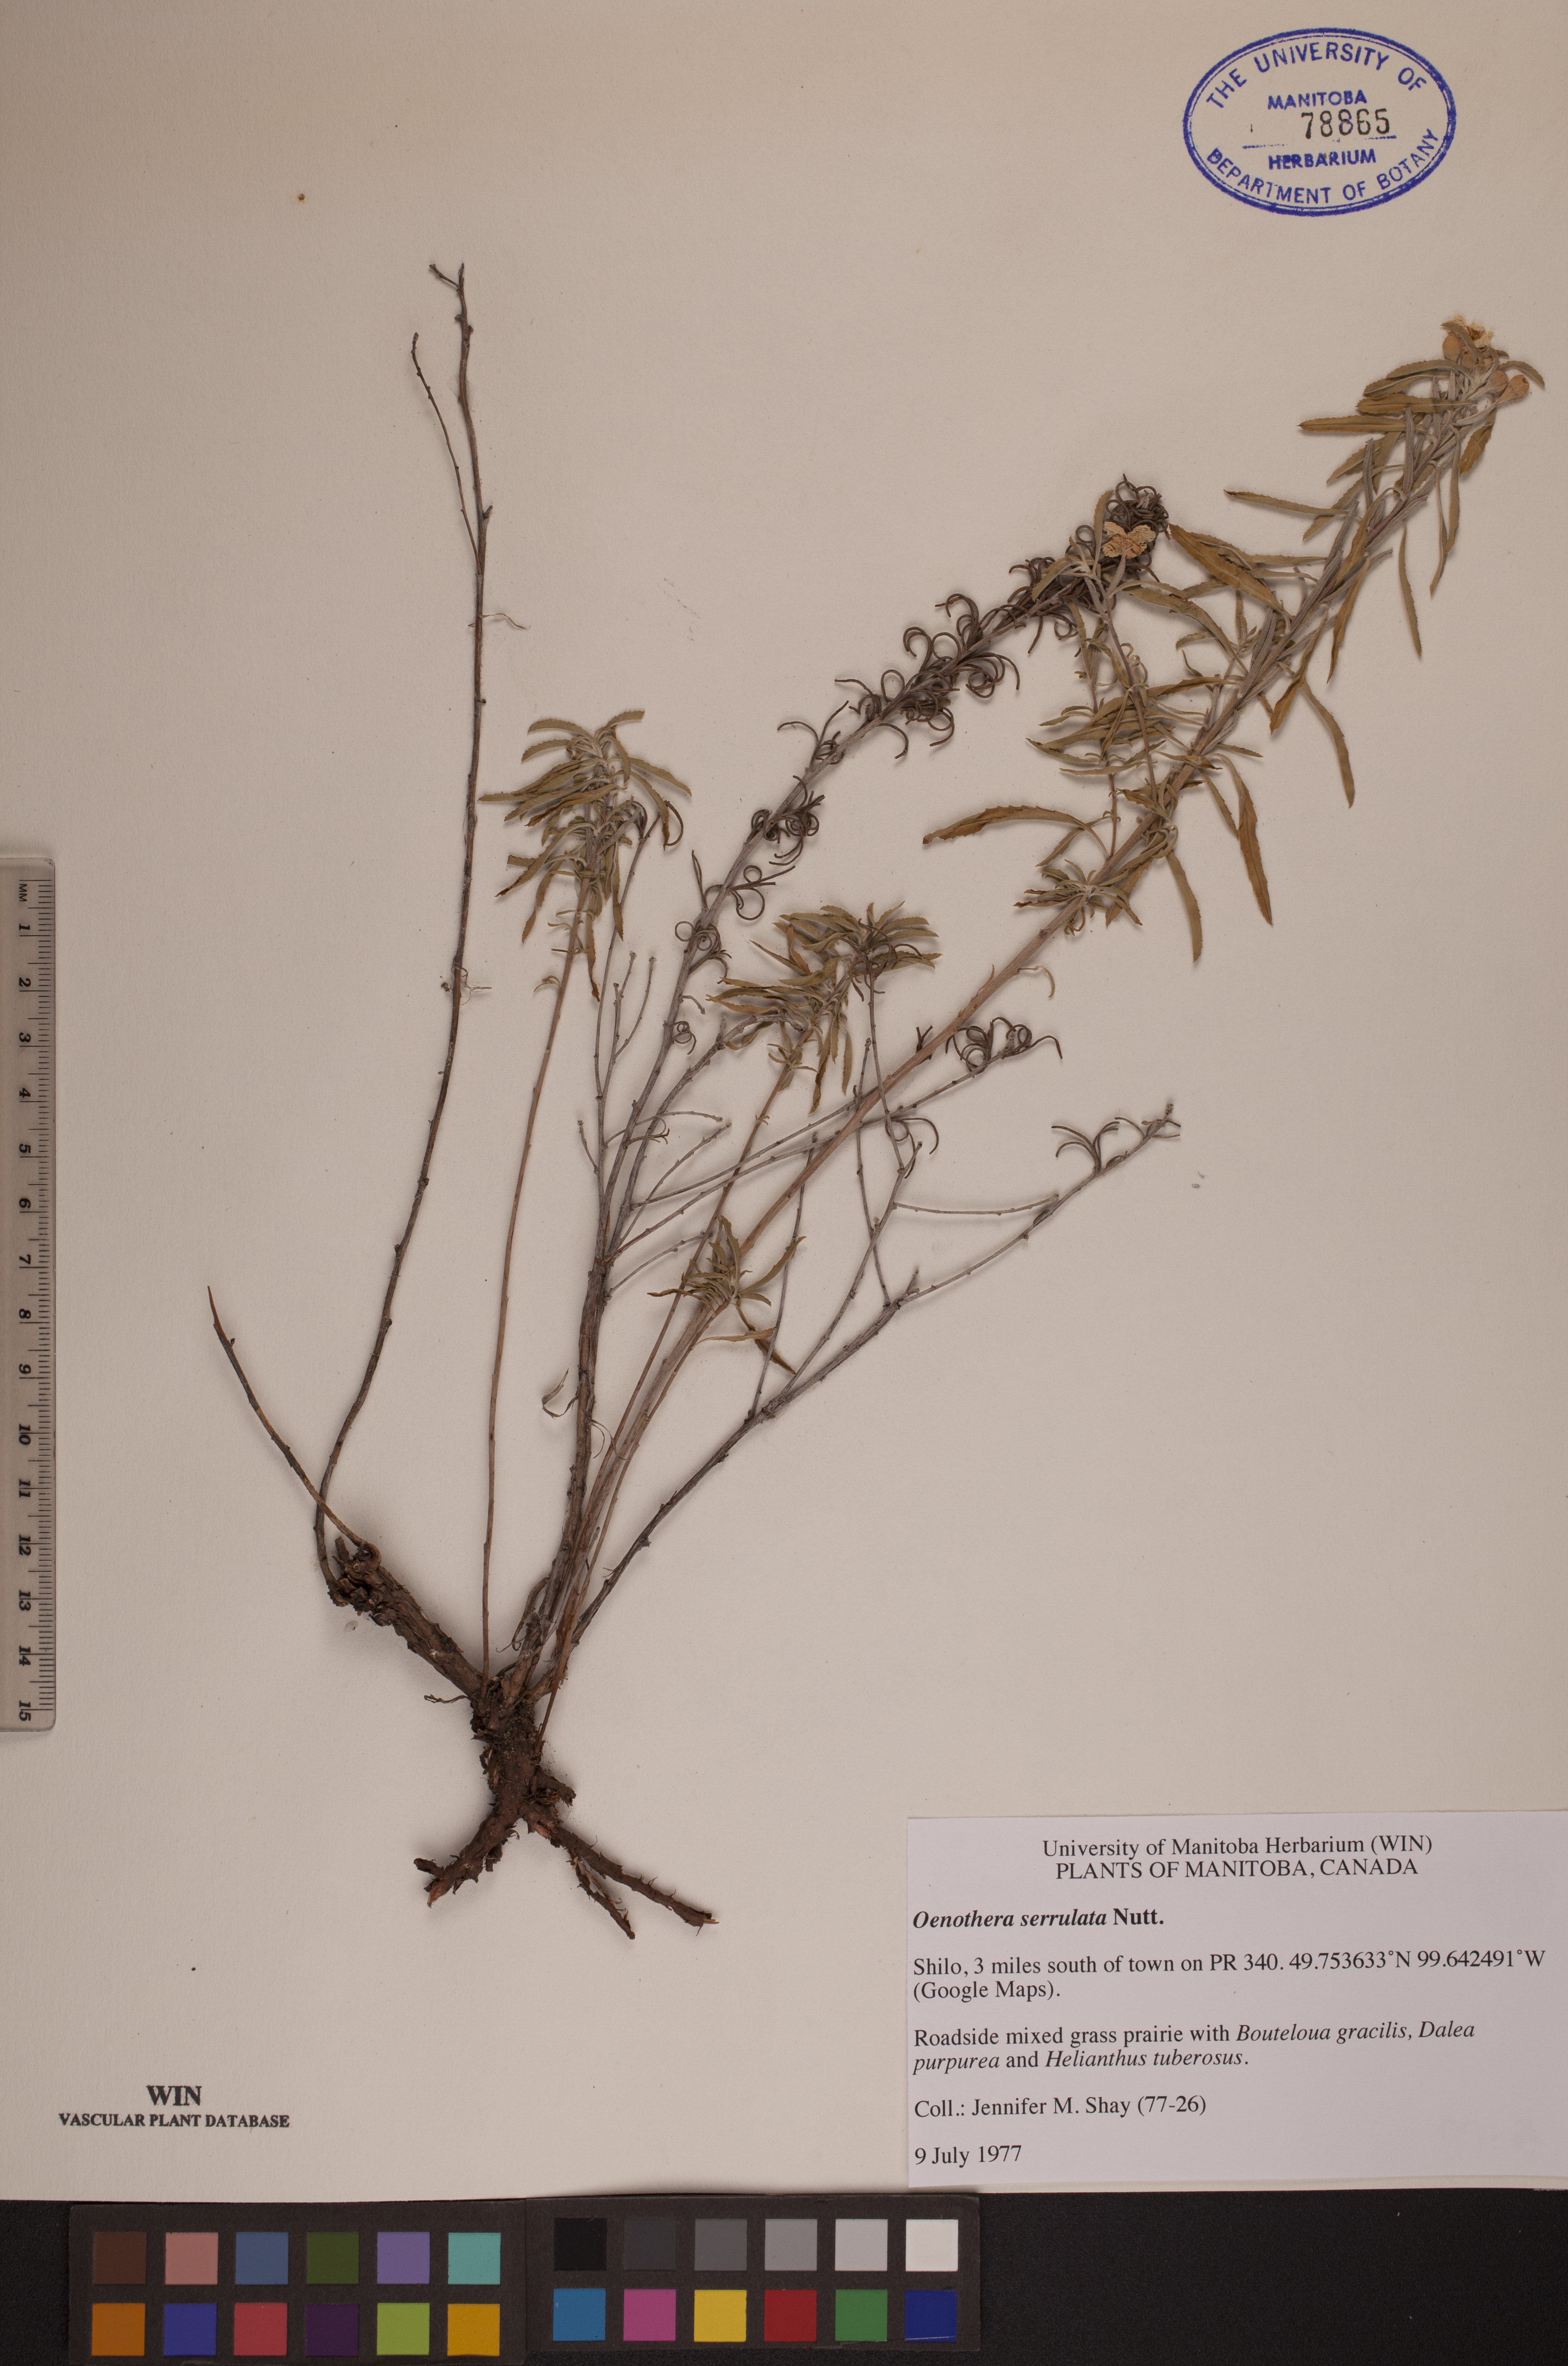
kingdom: Plantae
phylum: Tracheophyta
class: Magnoliopsida
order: Myrtales
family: Onagraceae
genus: Oenothera
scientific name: Oenothera serrulata
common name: Half-shrub calylophus
